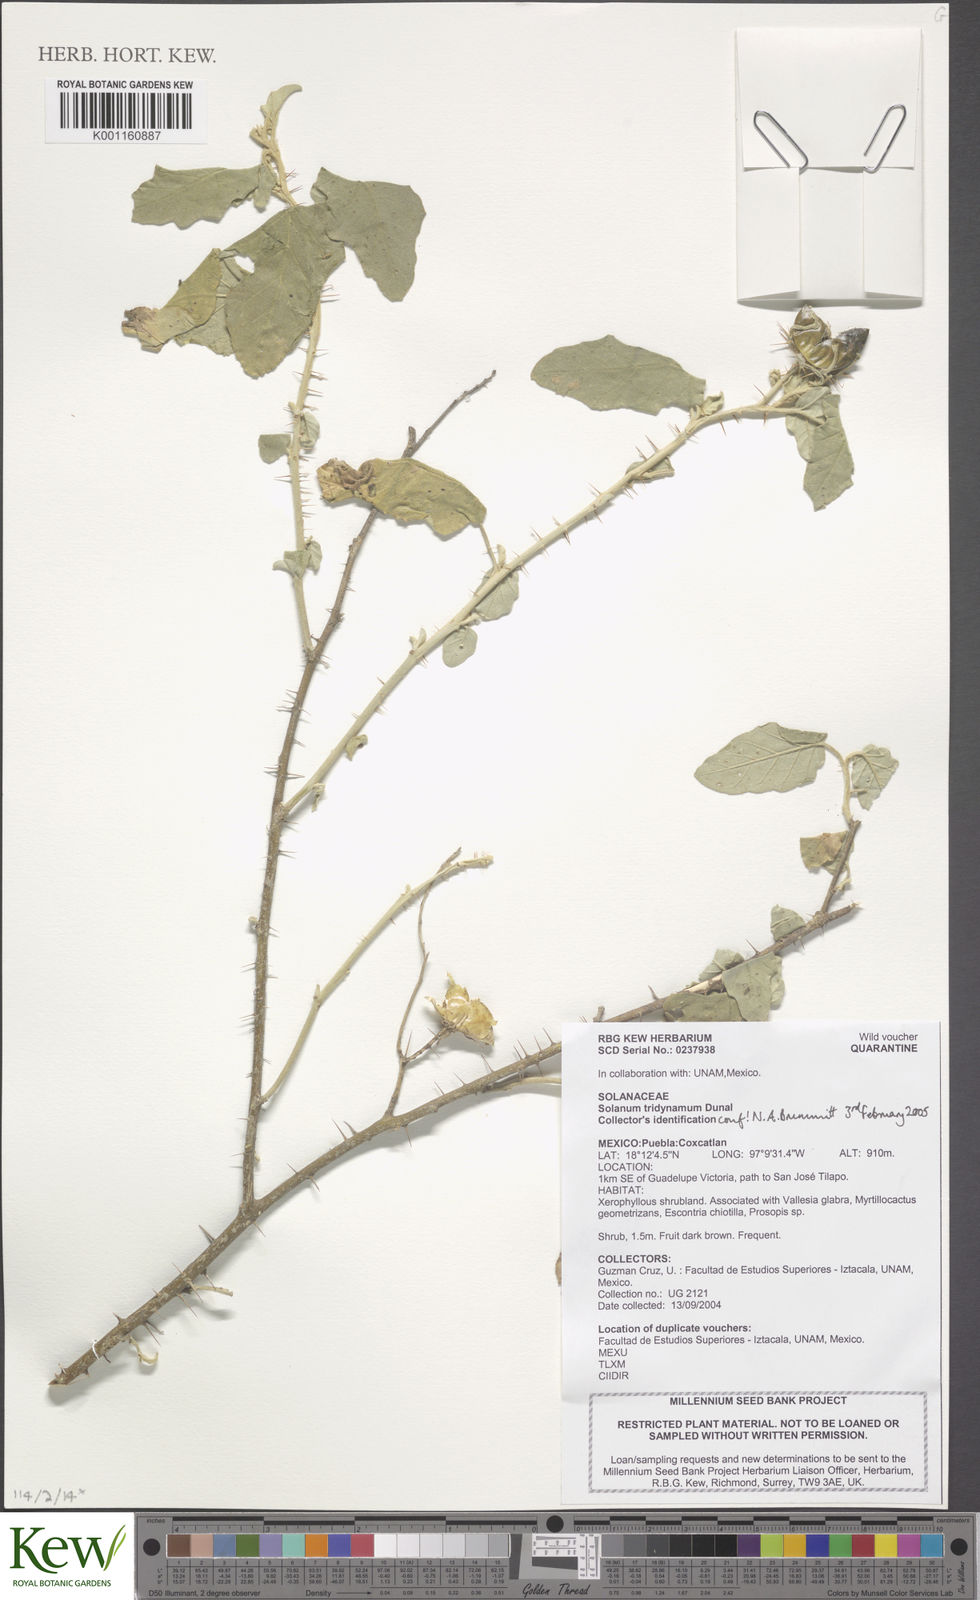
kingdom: Plantae
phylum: Tracheophyta
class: Magnoliopsida
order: Solanales
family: Solanaceae
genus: Solanum
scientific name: Solanum houstonii
